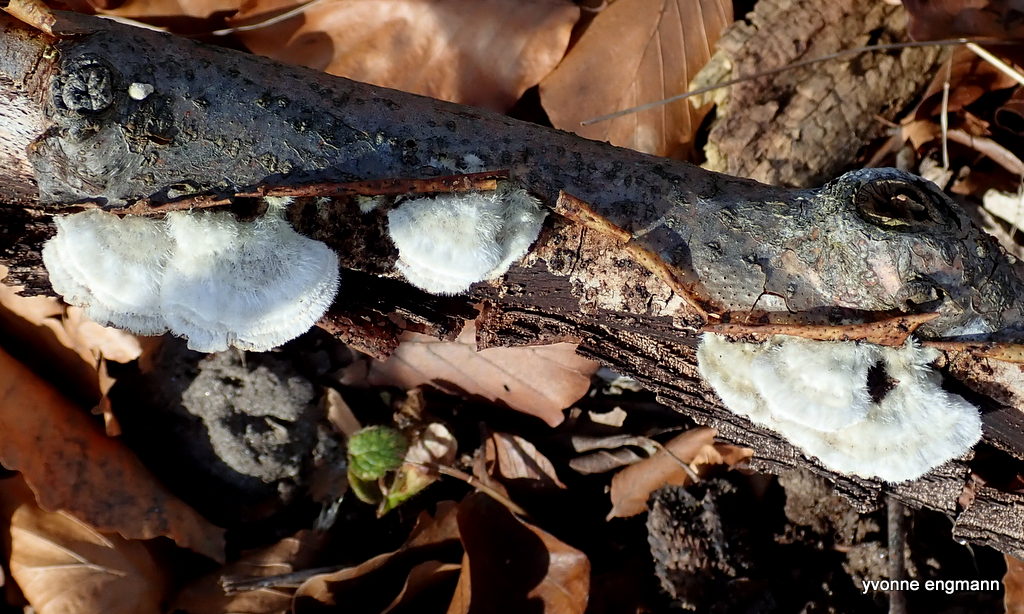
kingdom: Fungi
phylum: Basidiomycota
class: Agaricomycetes
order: Polyporales
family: Polyporaceae
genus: Trametes
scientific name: Trametes hirsuta
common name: håret læderporesvamp
